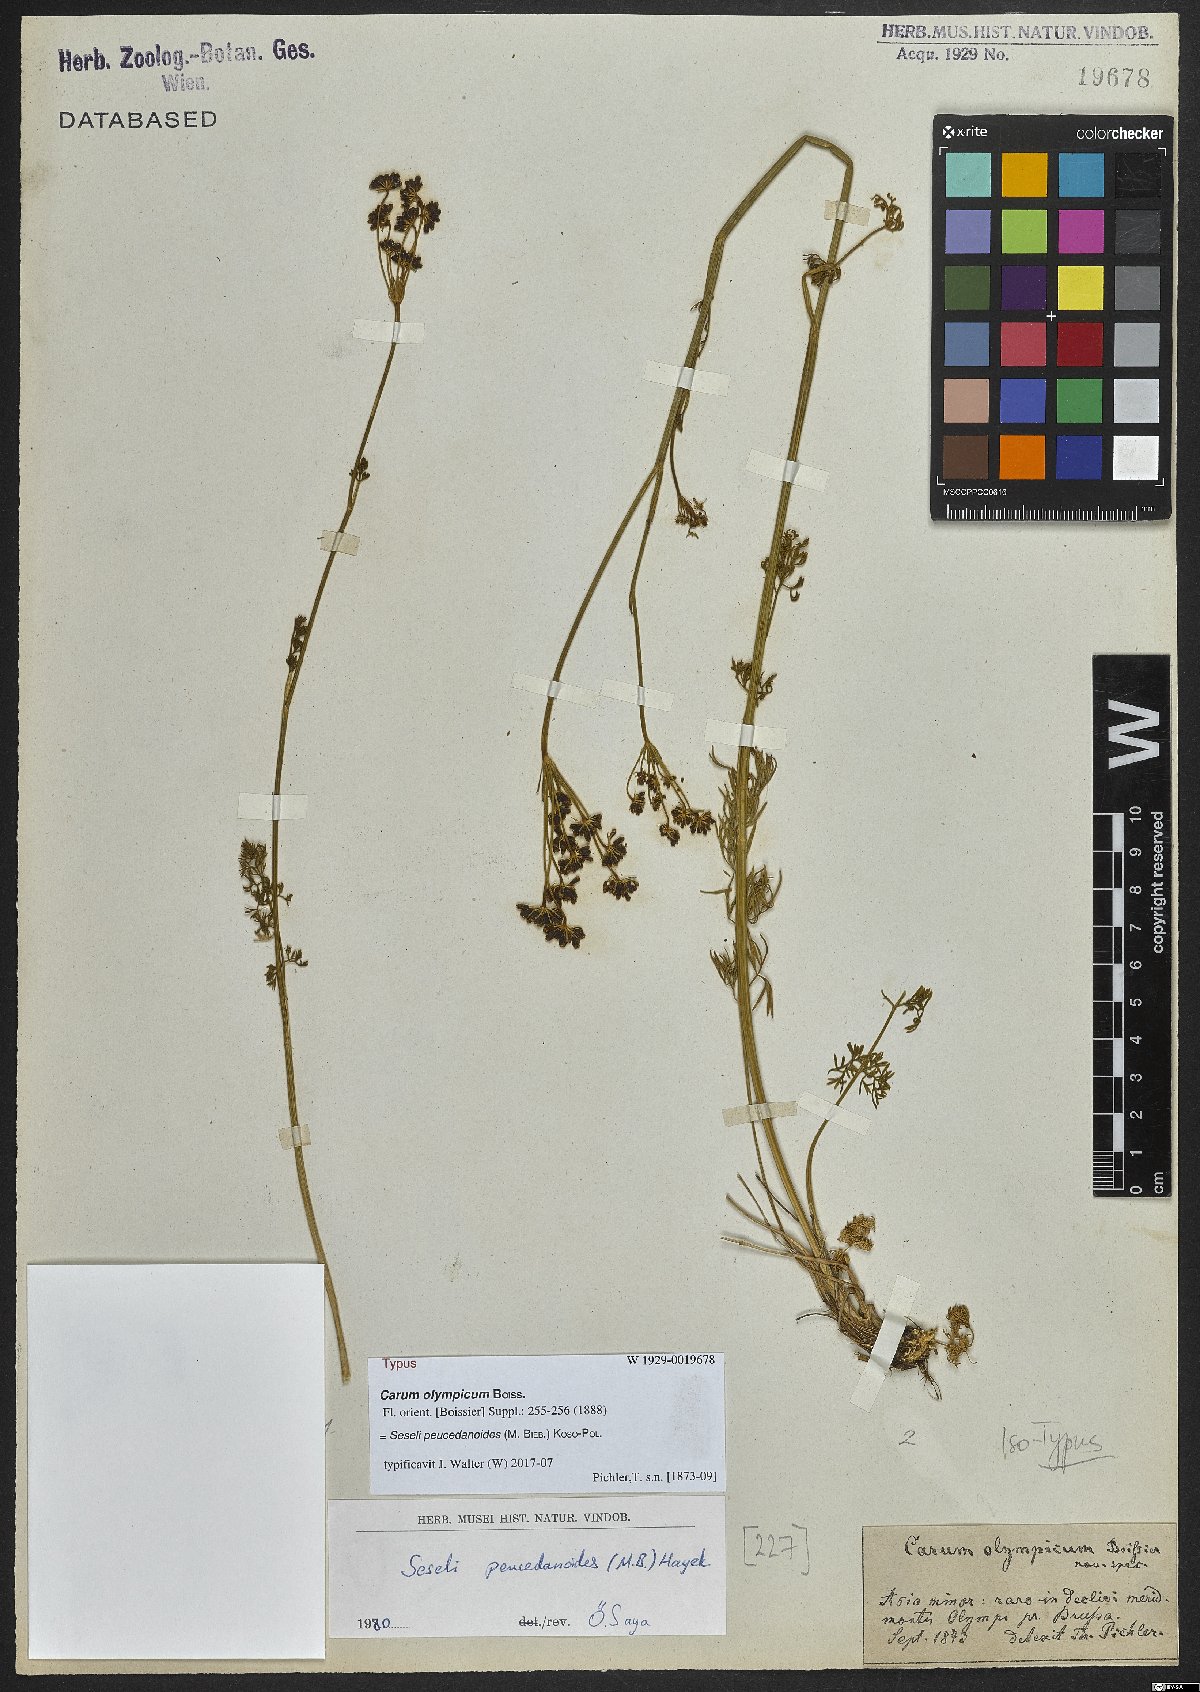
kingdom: Plantae
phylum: Tracheophyta
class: Magnoliopsida
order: Apiales
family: Apiaceae
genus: Gasparinia
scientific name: Gasparinia peucedanoides
